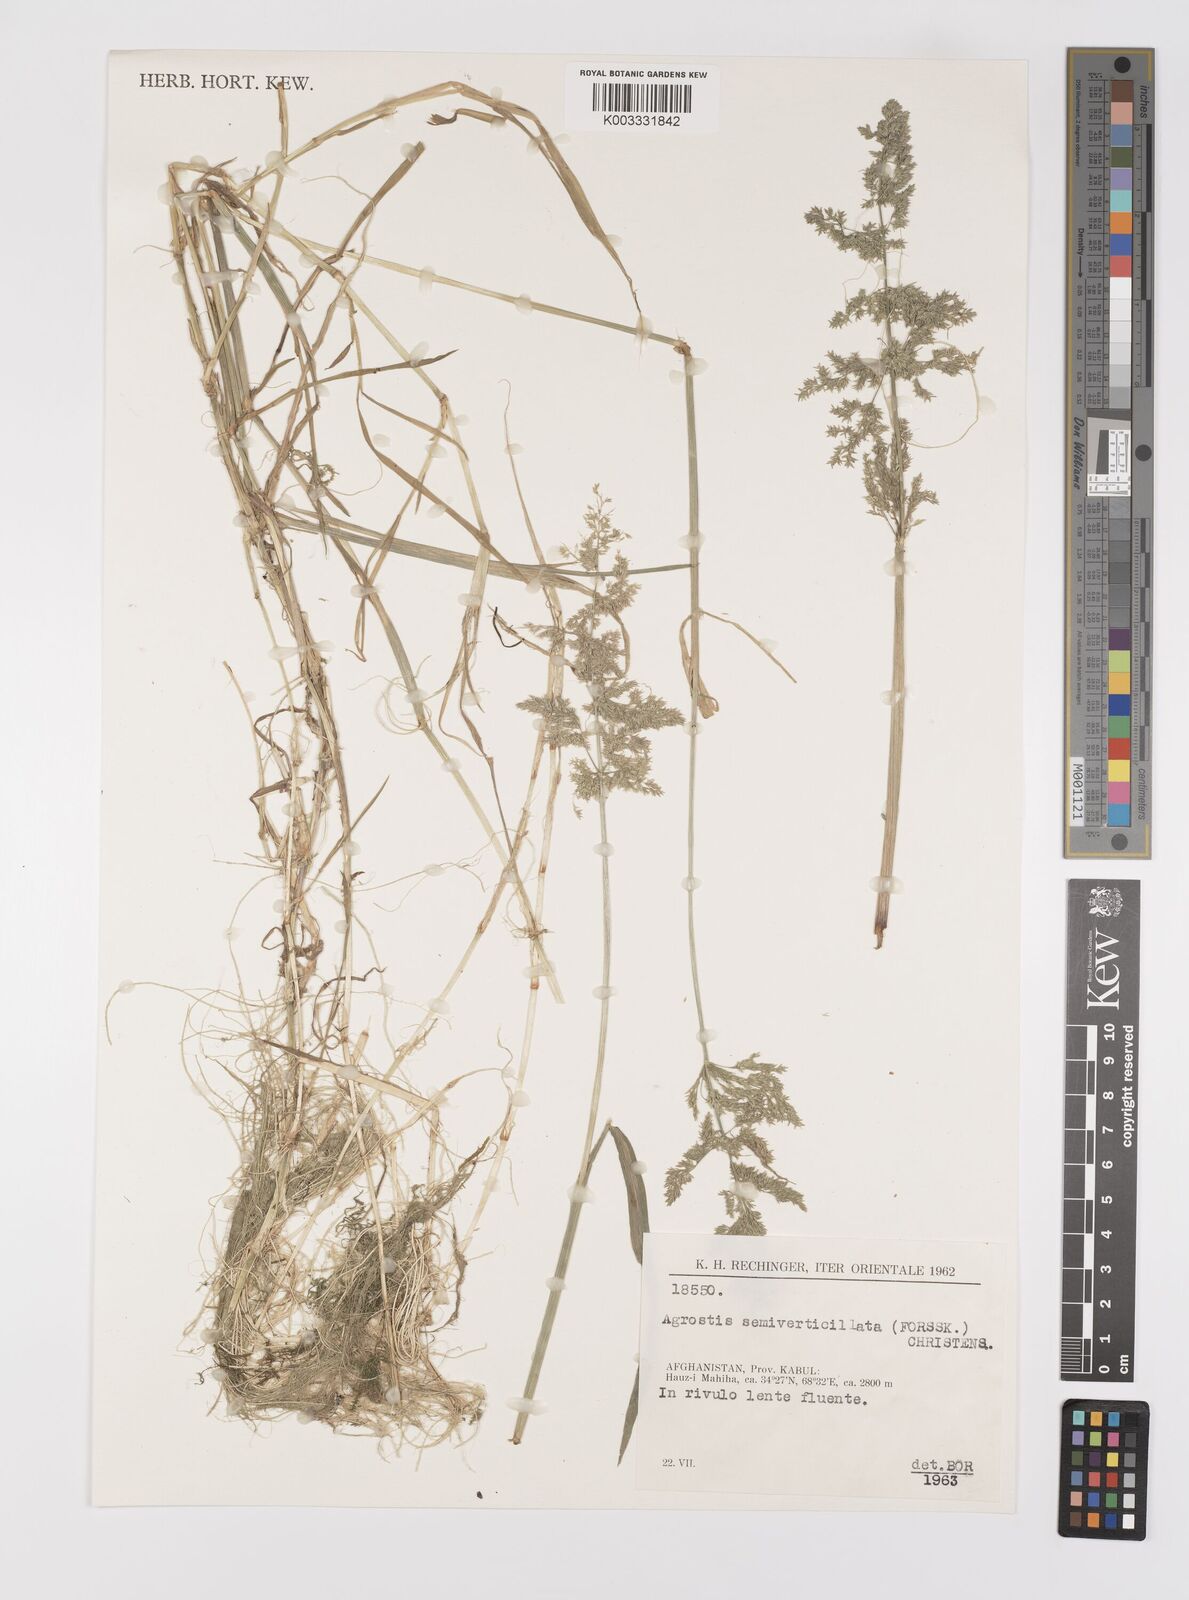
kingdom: Plantae
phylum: Tracheophyta
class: Liliopsida
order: Poales
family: Poaceae
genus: Polypogon
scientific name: Polypogon viridis
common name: Water bent
